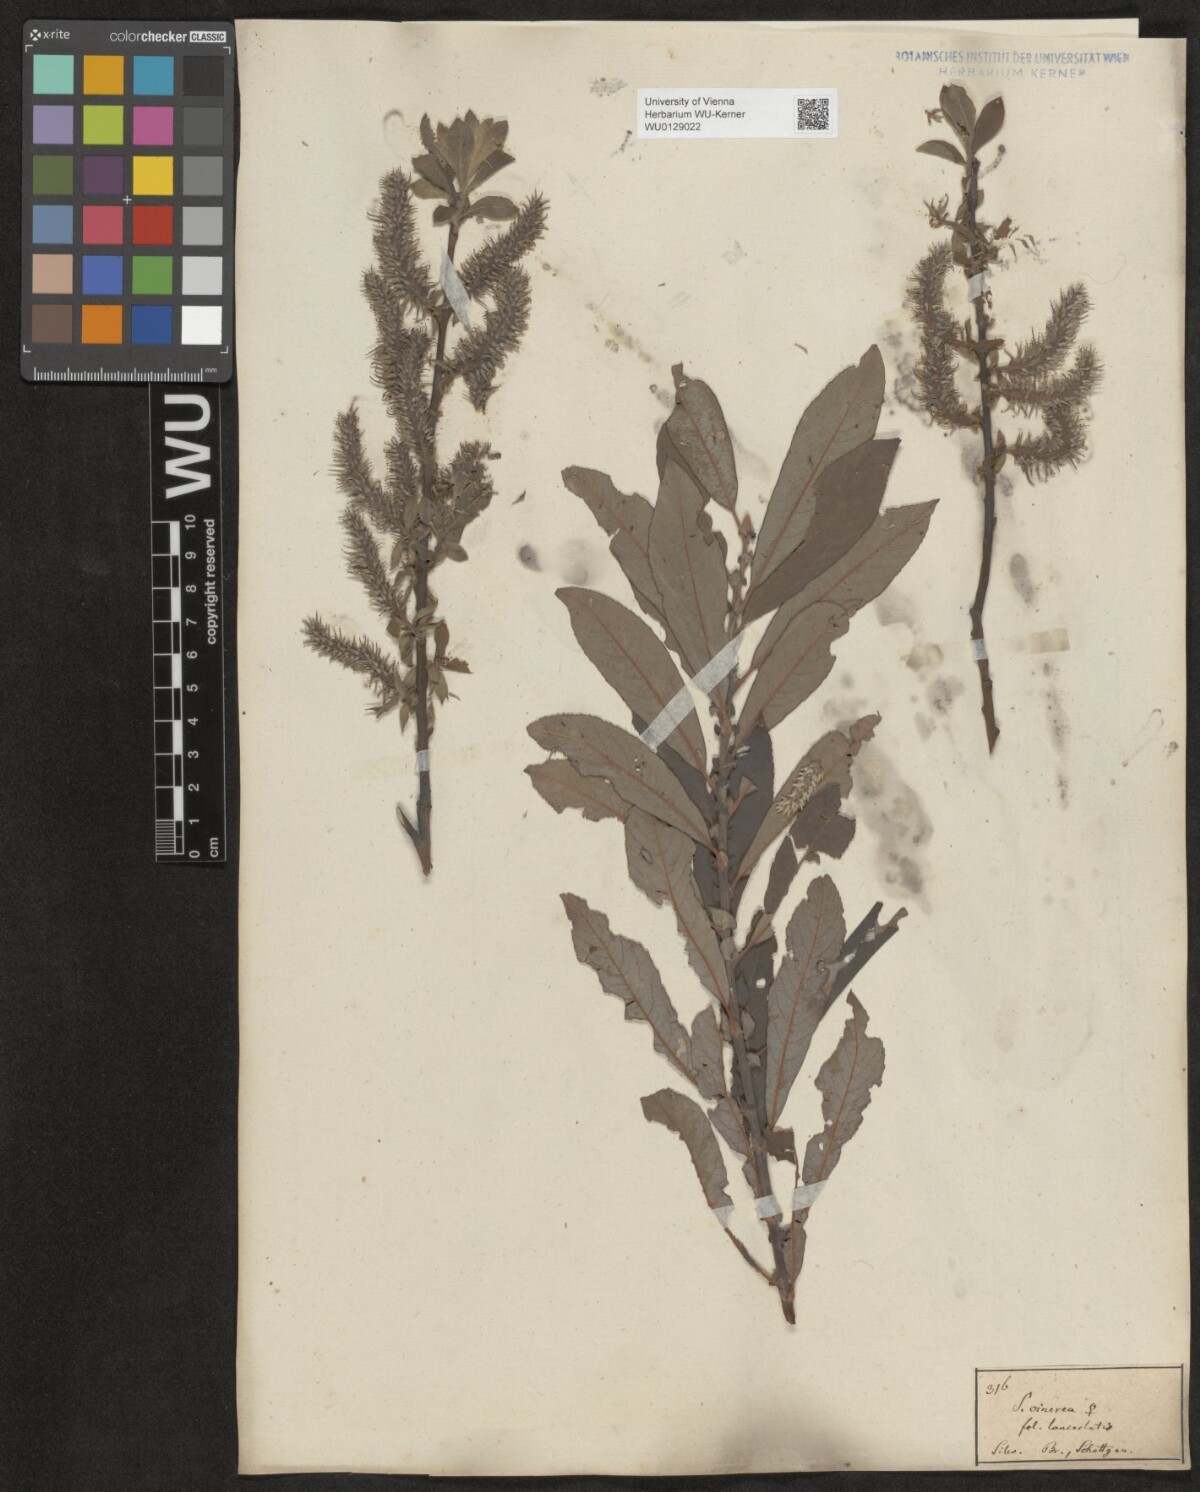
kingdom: Plantae
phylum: Tracheophyta
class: Magnoliopsida
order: Malpighiales
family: Salicaceae
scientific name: Salicaceae
